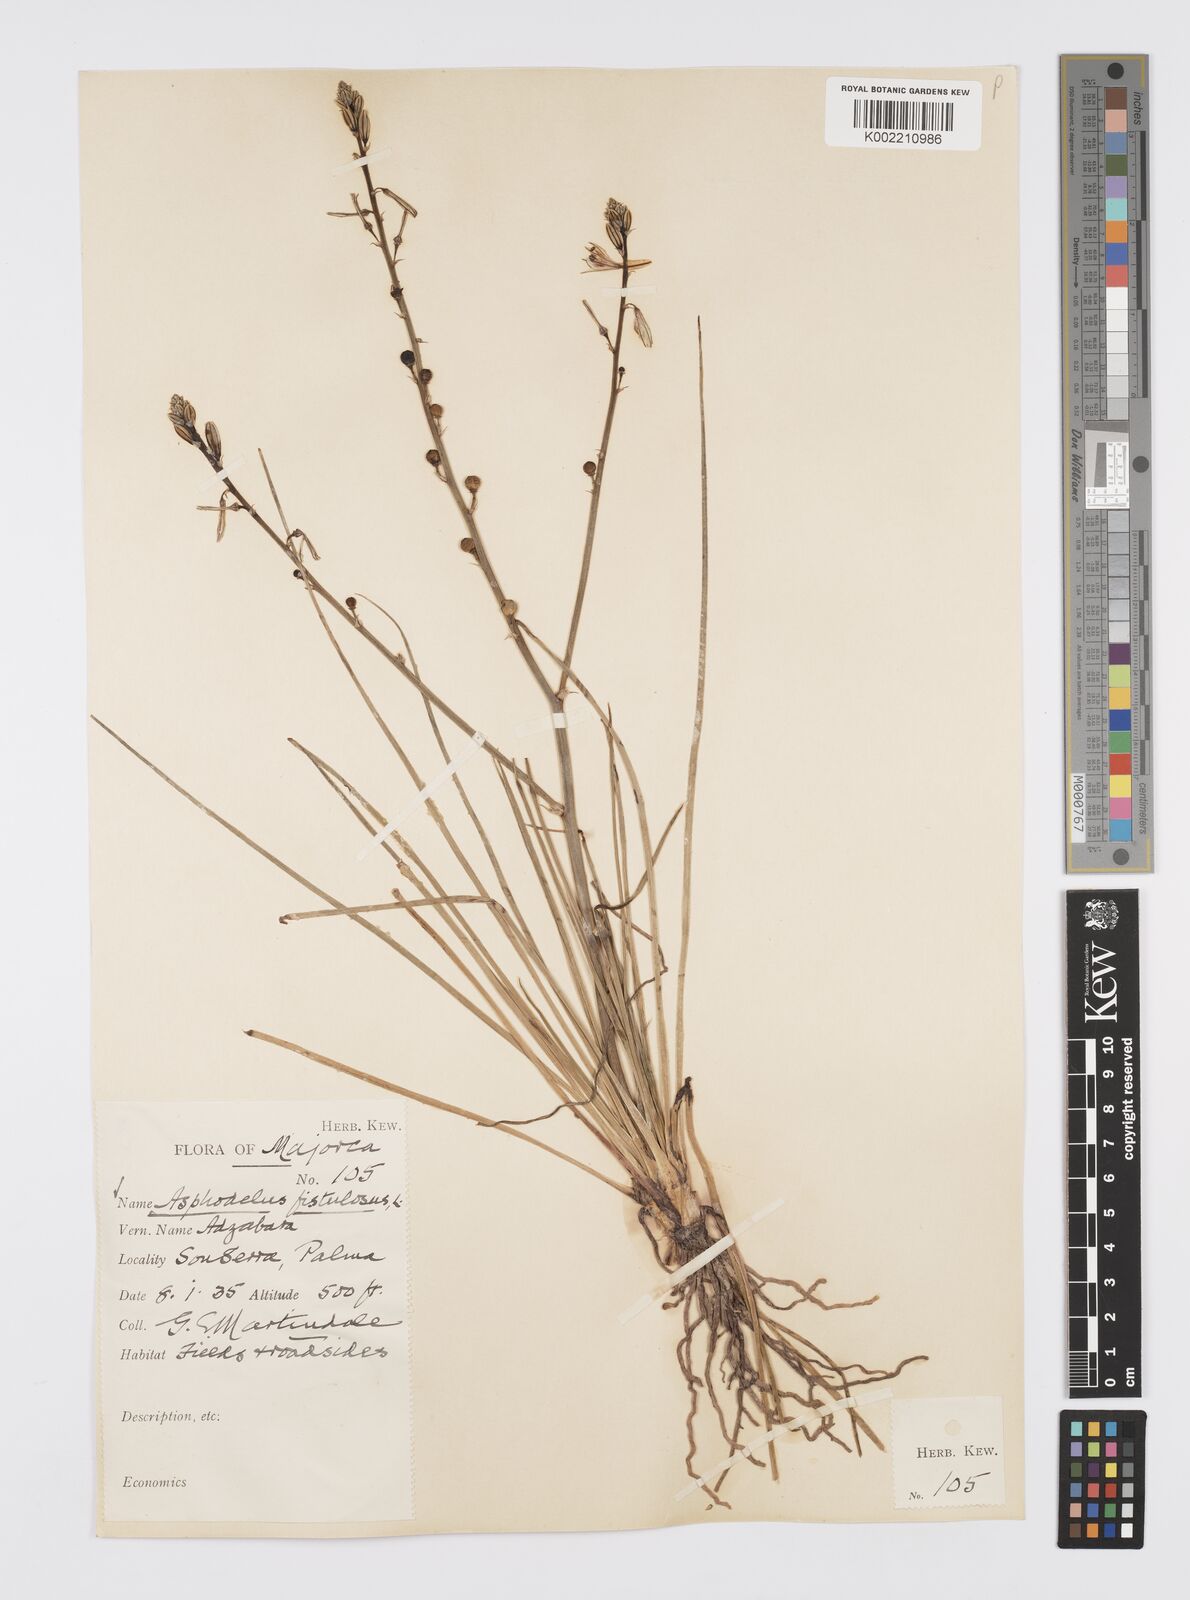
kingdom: Plantae
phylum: Tracheophyta
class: Liliopsida
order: Asparagales
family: Asphodelaceae
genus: Asphodelus
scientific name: Asphodelus fistulosus
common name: Onionweed
